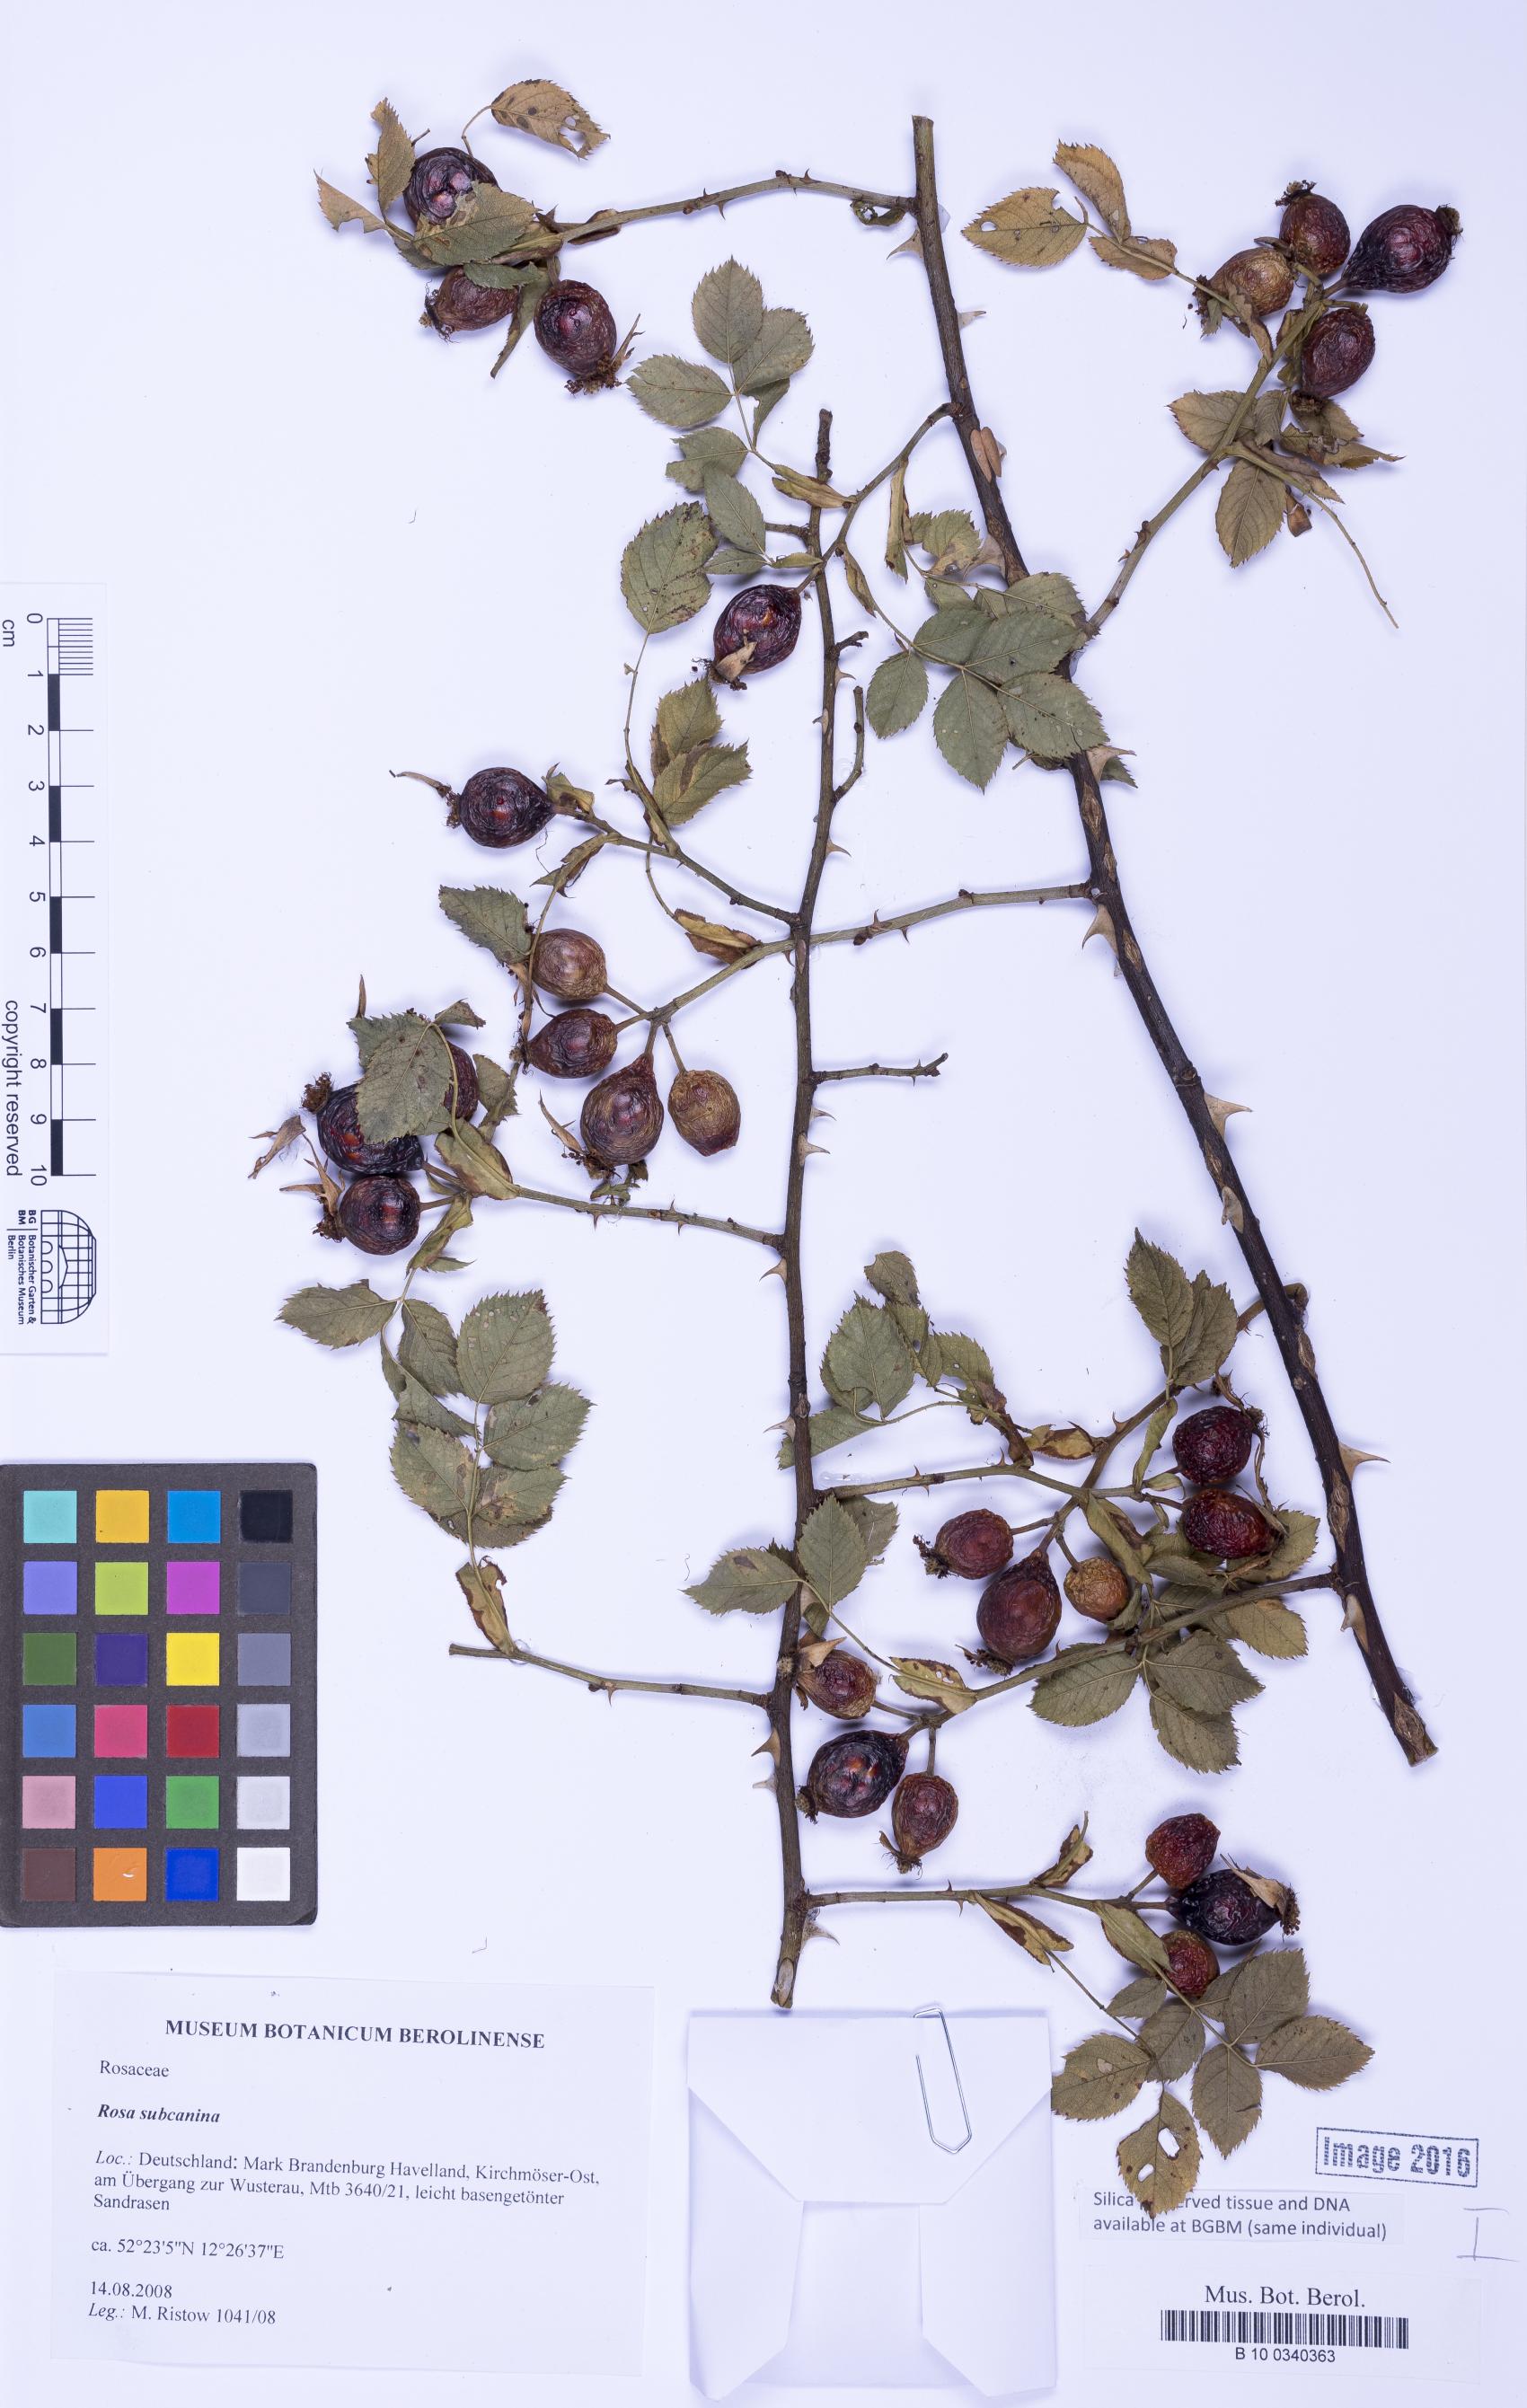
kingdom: Plantae
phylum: Tracheophyta
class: Magnoliopsida
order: Rosales
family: Rosaceae
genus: Rosa
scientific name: Rosa caesia
